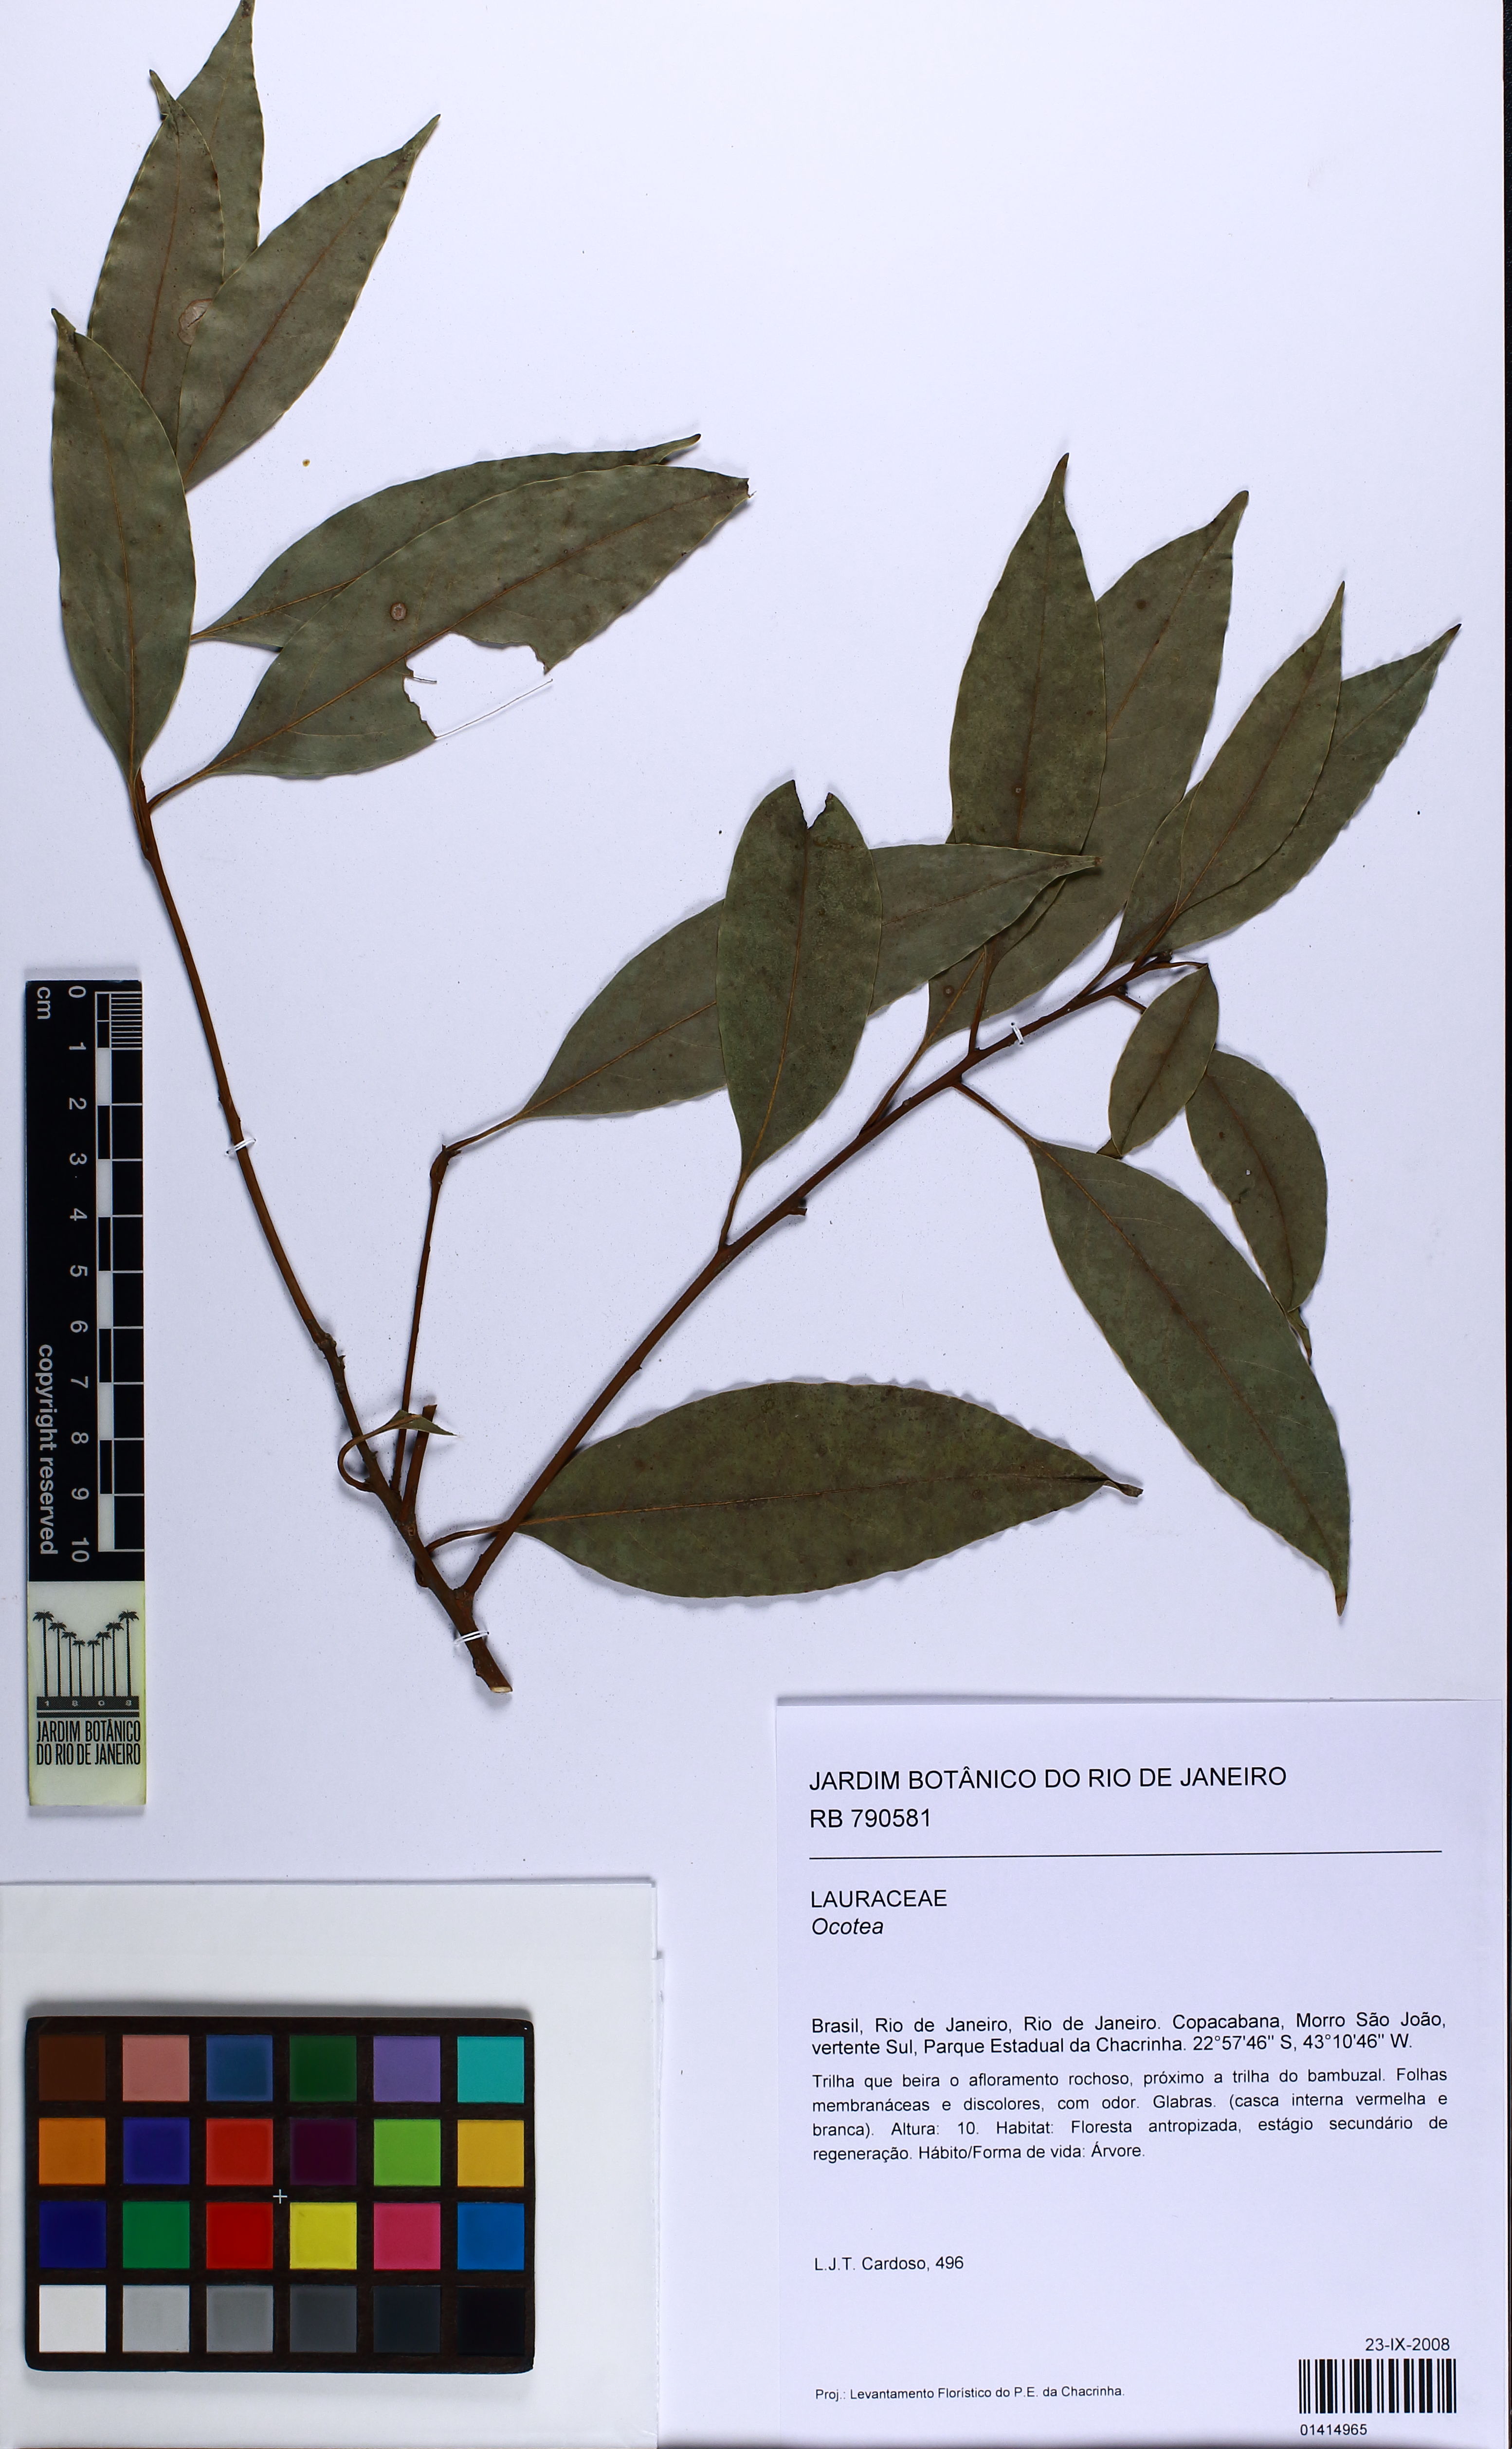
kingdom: Plantae
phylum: Tracheophyta
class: Magnoliopsida
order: Laurales
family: Lauraceae
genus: Ocotea
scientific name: Ocotea
